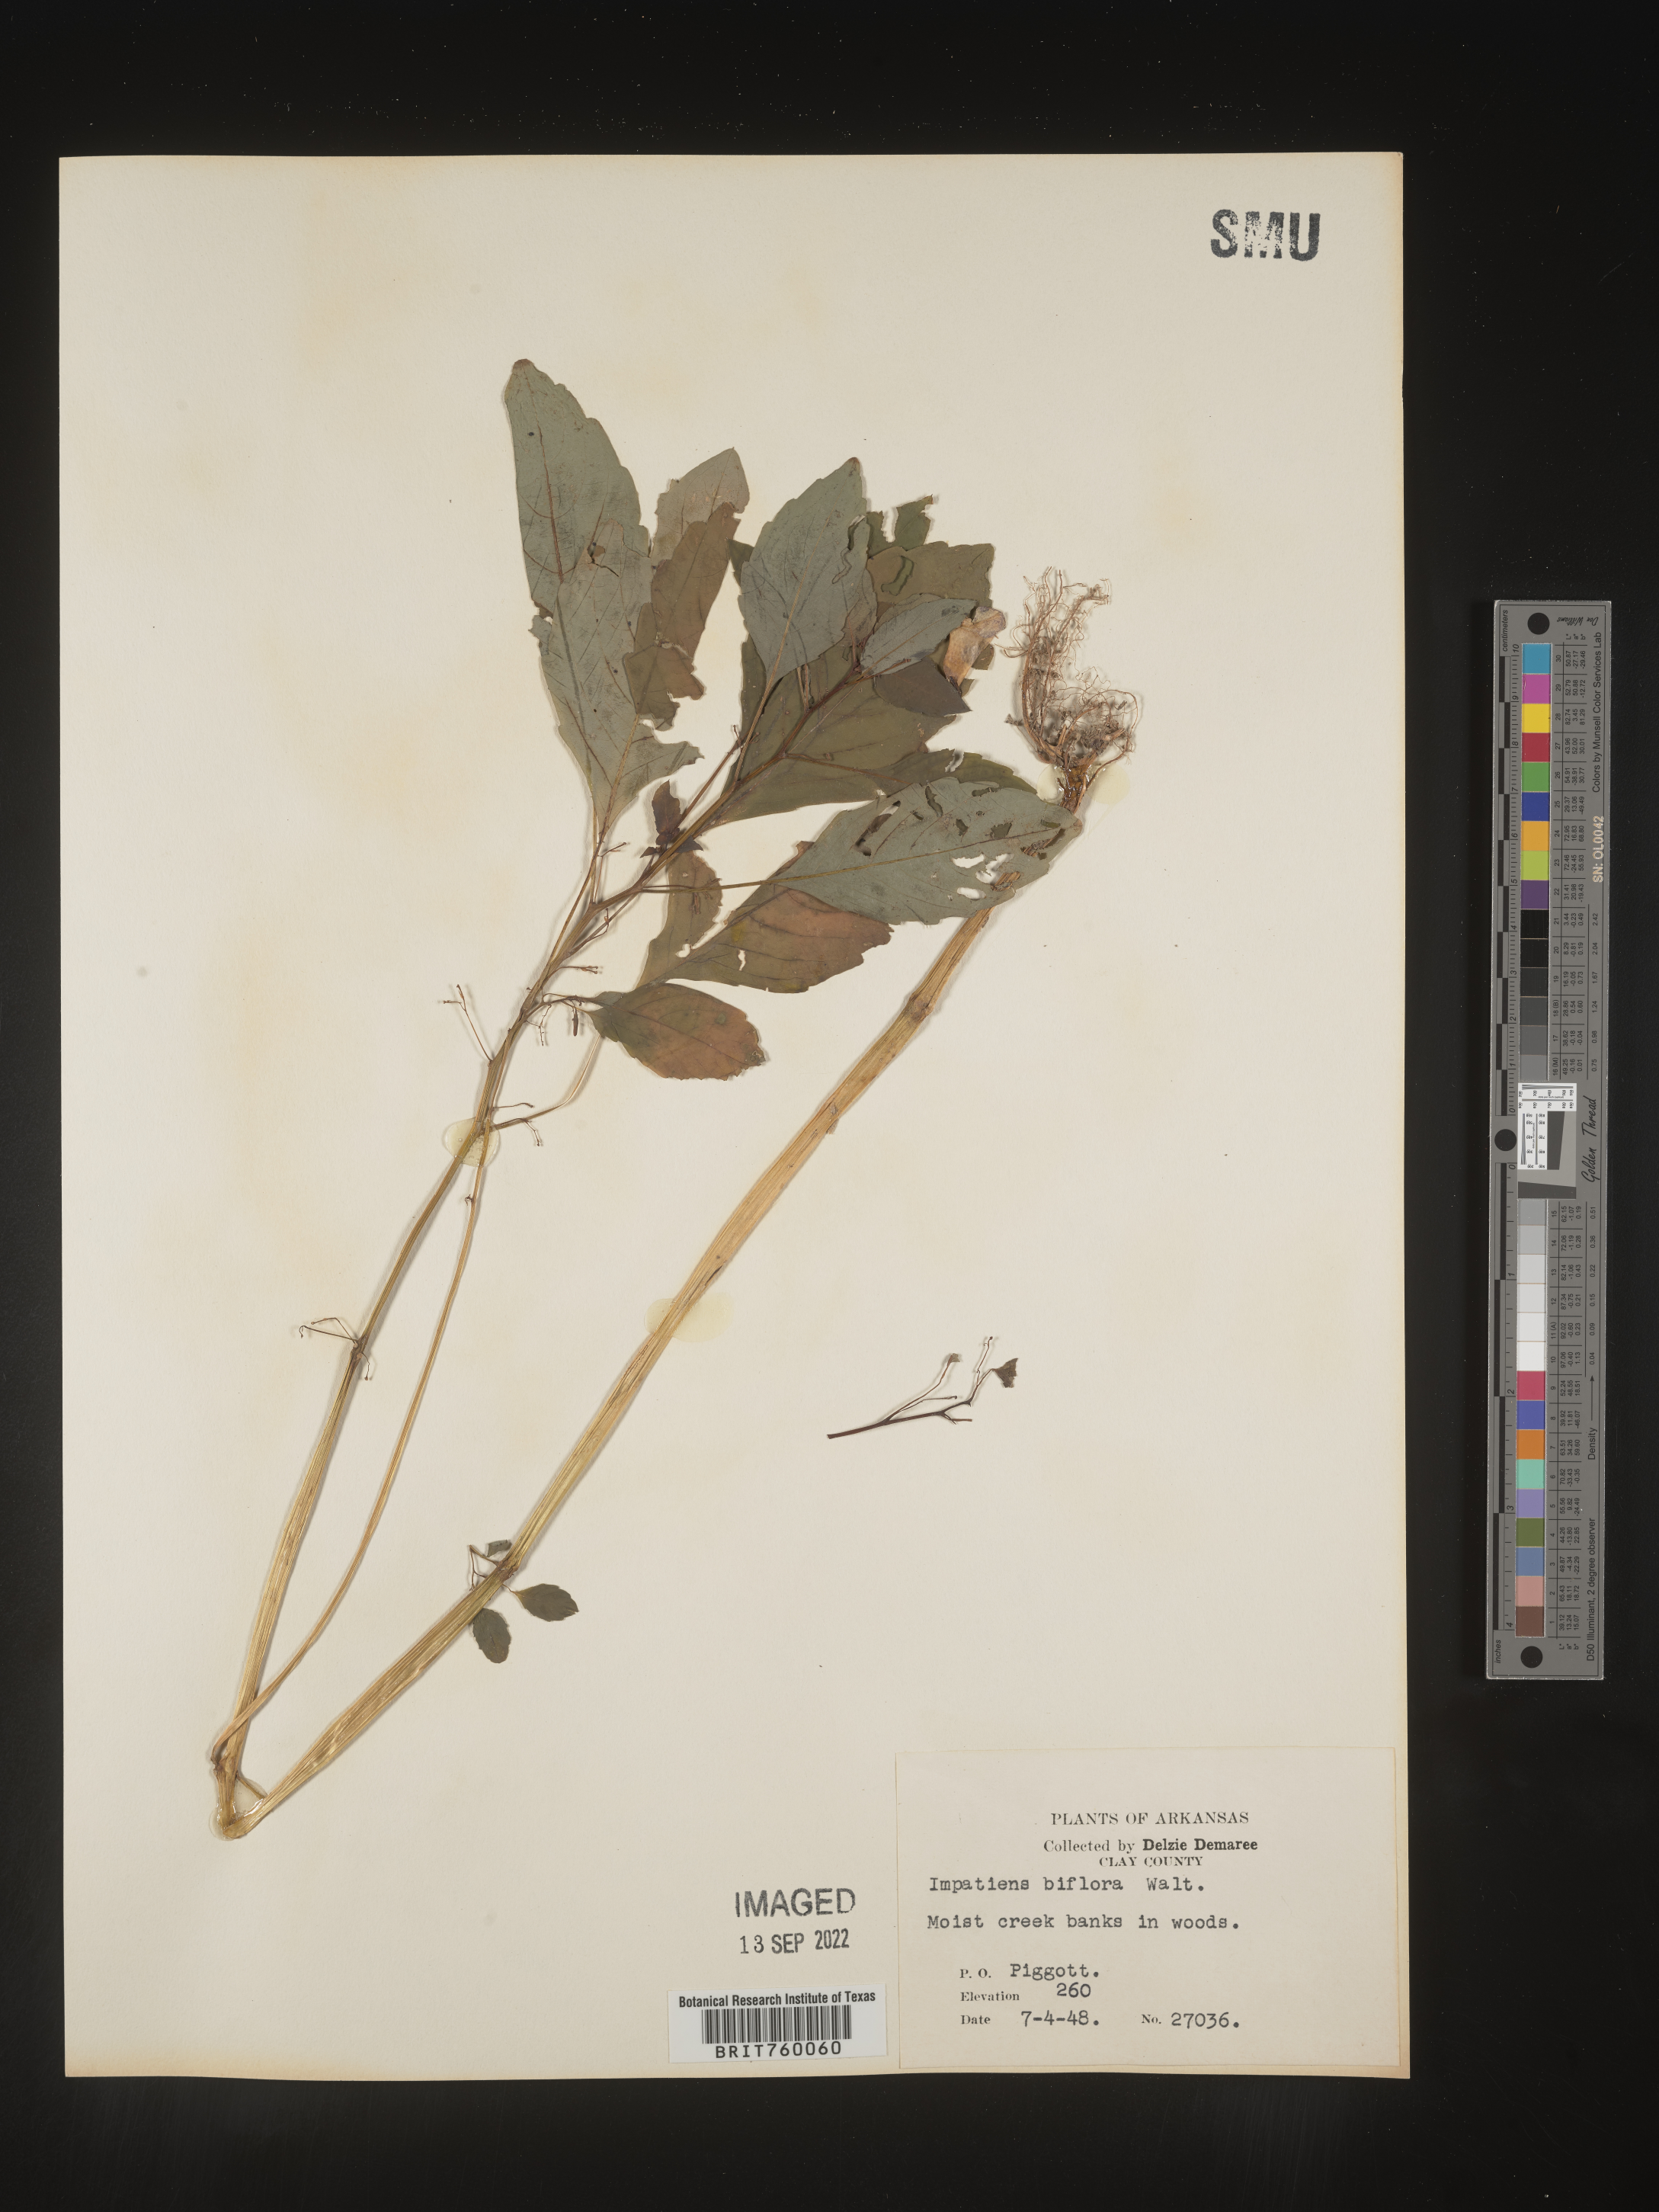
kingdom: Plantae
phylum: Tracheophyta
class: Magnoliopsida
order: Ericales
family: Balsaminaceae
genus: Impatiens
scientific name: Impatiens capensis
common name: Orange balsam
